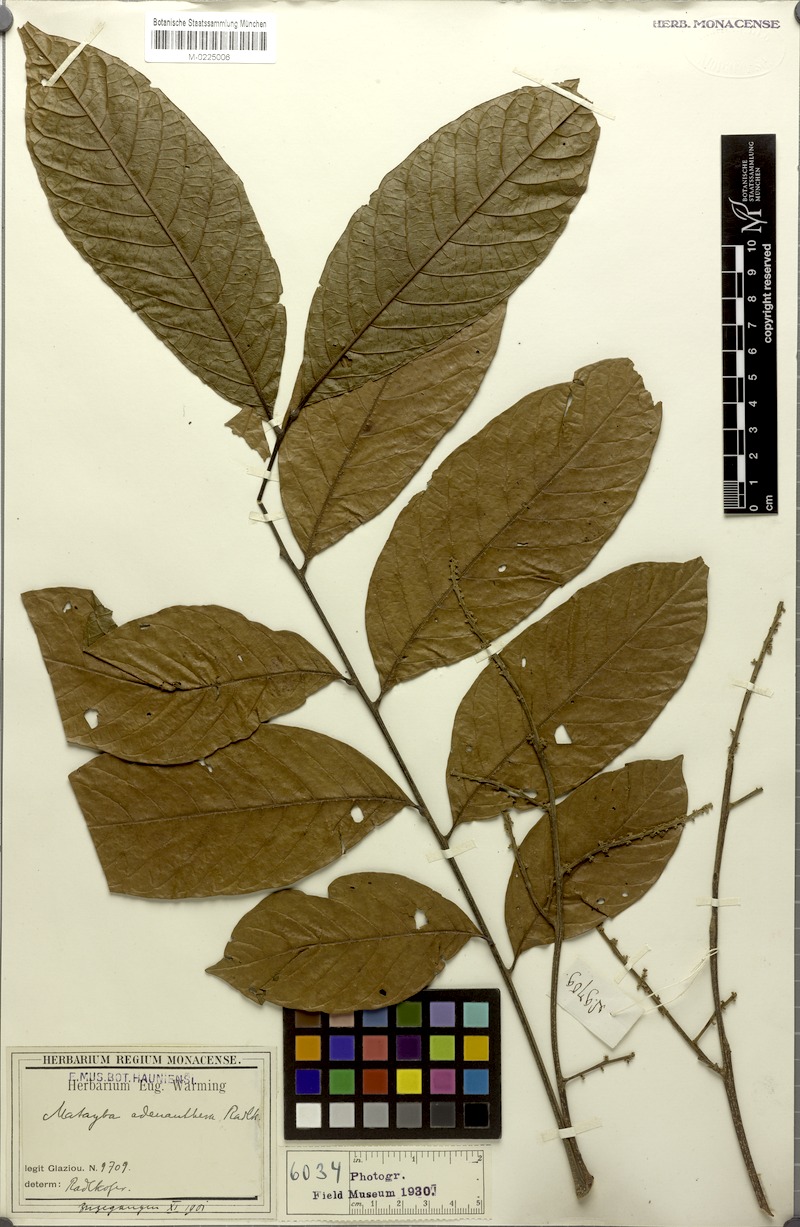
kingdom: Plantae
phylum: Tracheophyta
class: Magnoliopsida
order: Sapindales
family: Sapindaceae
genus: Matayba
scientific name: Matayba adenanthera
